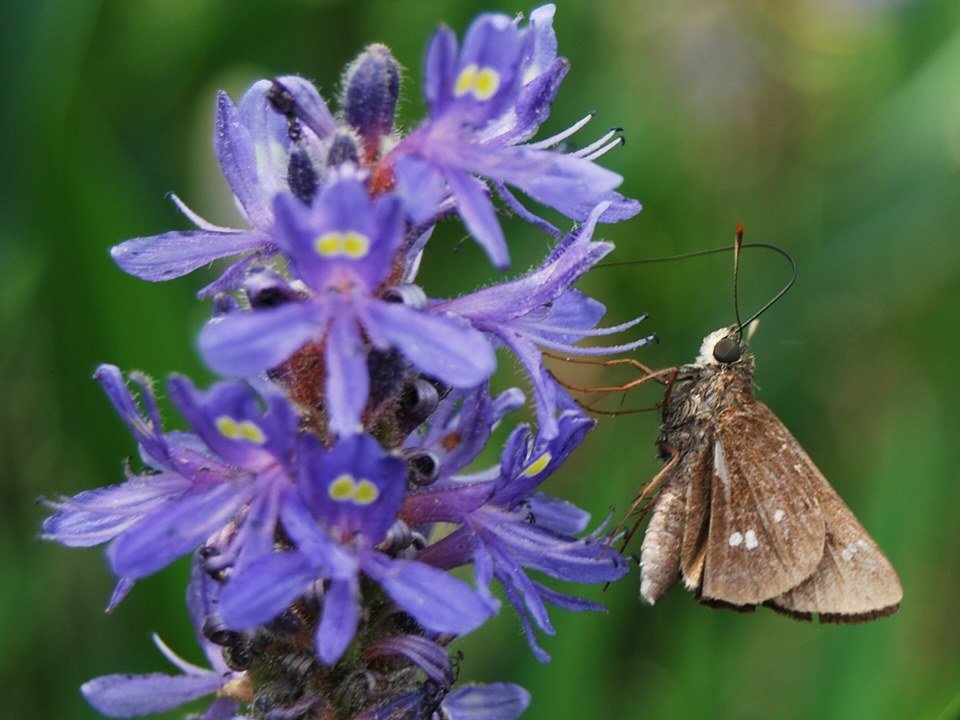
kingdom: Animalia
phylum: Arthropoda
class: Insecta
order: Lepidoptera
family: Hesperiidae
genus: Oligoria
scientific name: Oligoria maculata
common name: Twin-spot Skipper
